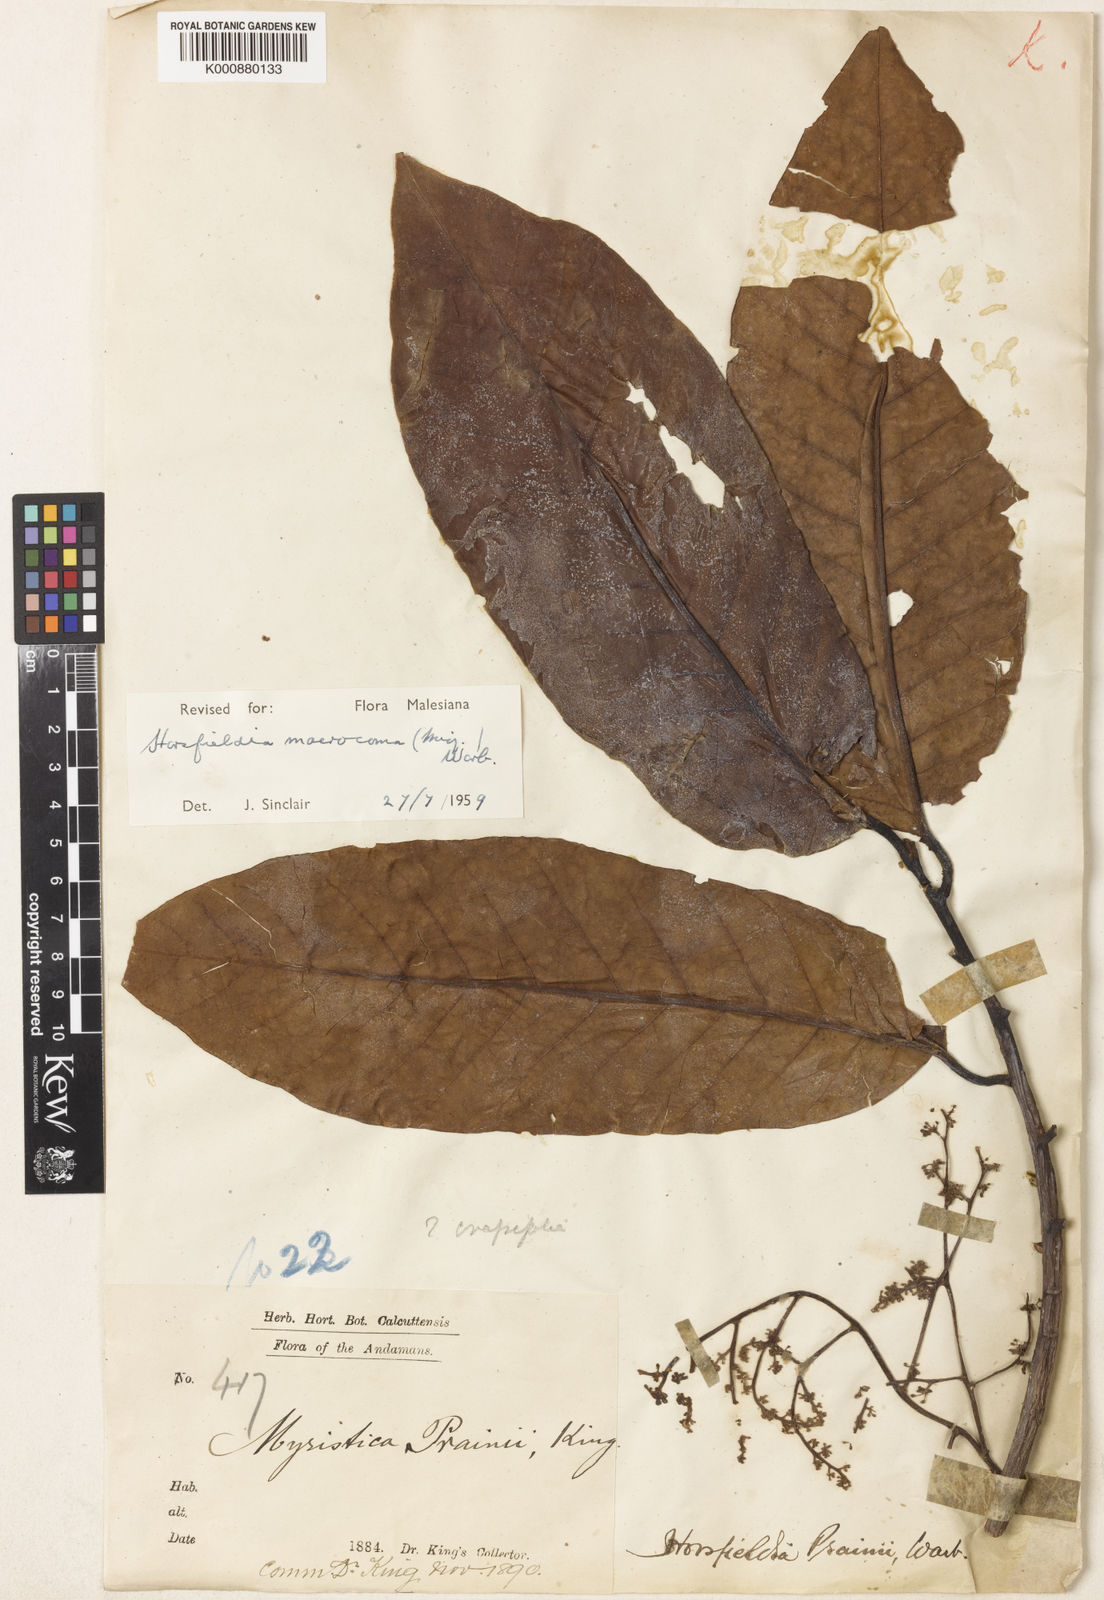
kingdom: Plantae
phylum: Tracheophyta
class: Magnoliopsida
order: Magnoliales
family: Myristicaceae
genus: Endocomia
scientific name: Endocomia macrocoma
